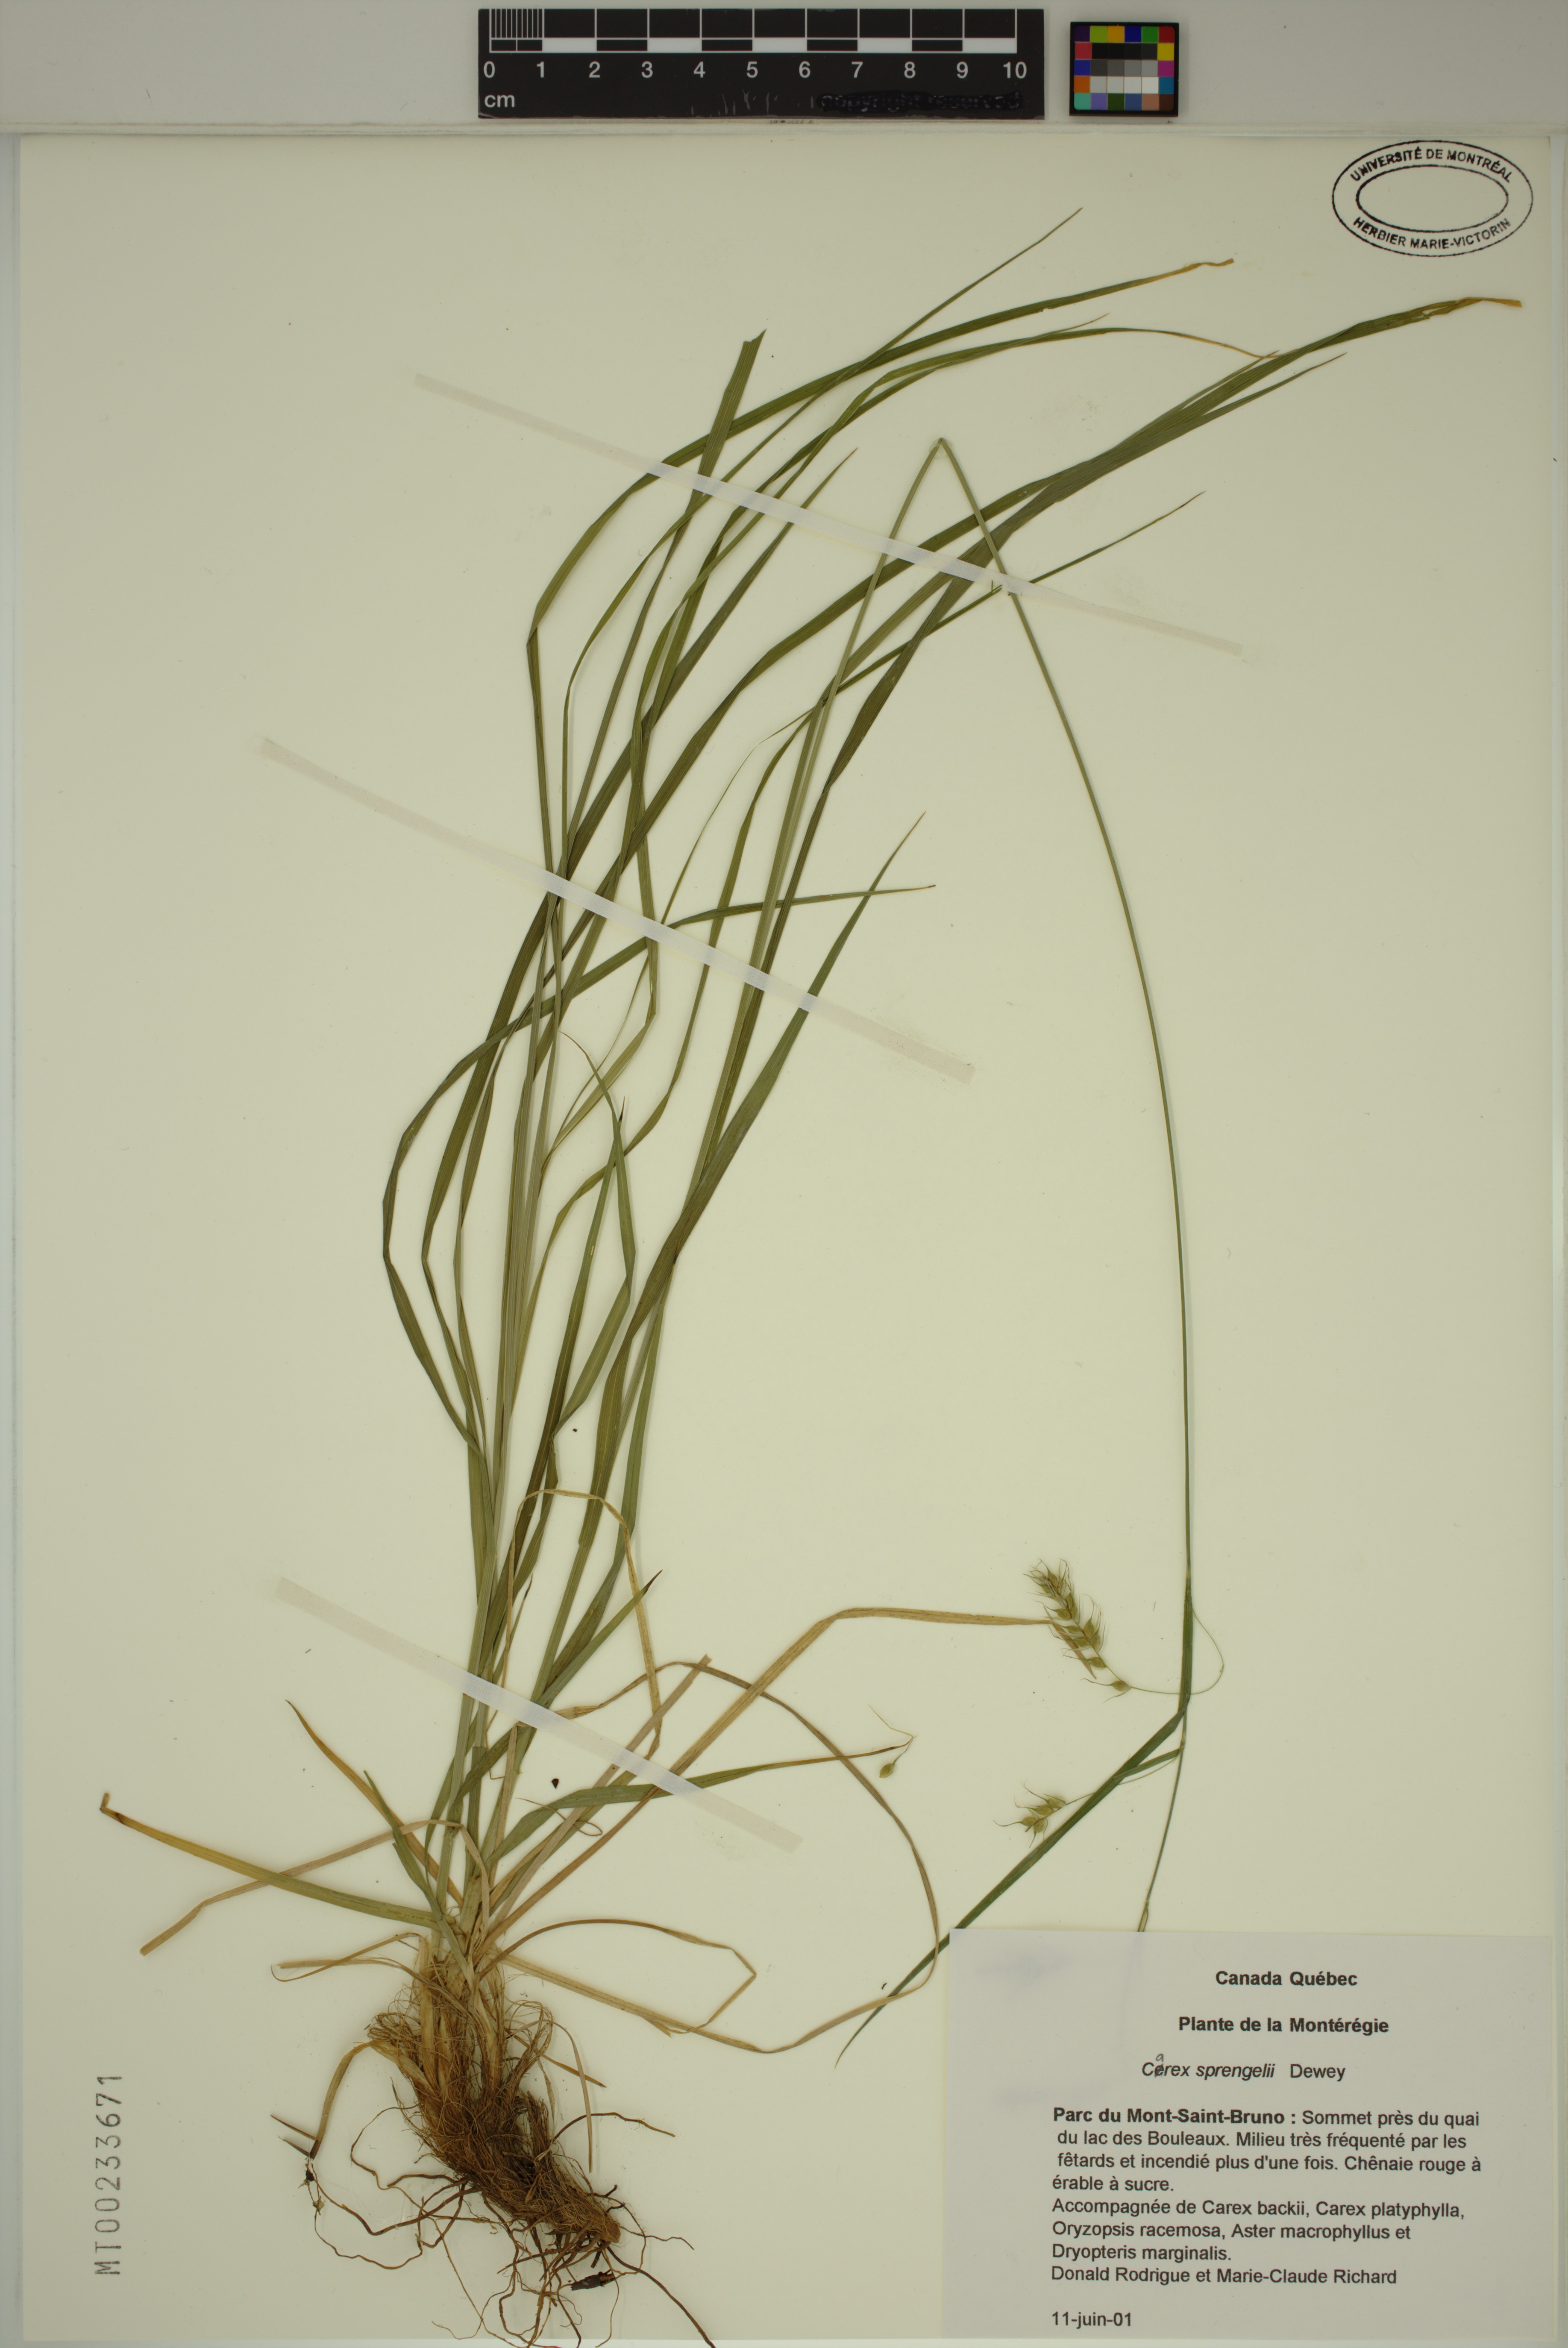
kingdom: Plantae
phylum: Tracheophyta
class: Liliopsida
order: Poales
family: Cyperaceae
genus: Carex
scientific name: Carex sprengelii
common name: Long-beaked sedge
